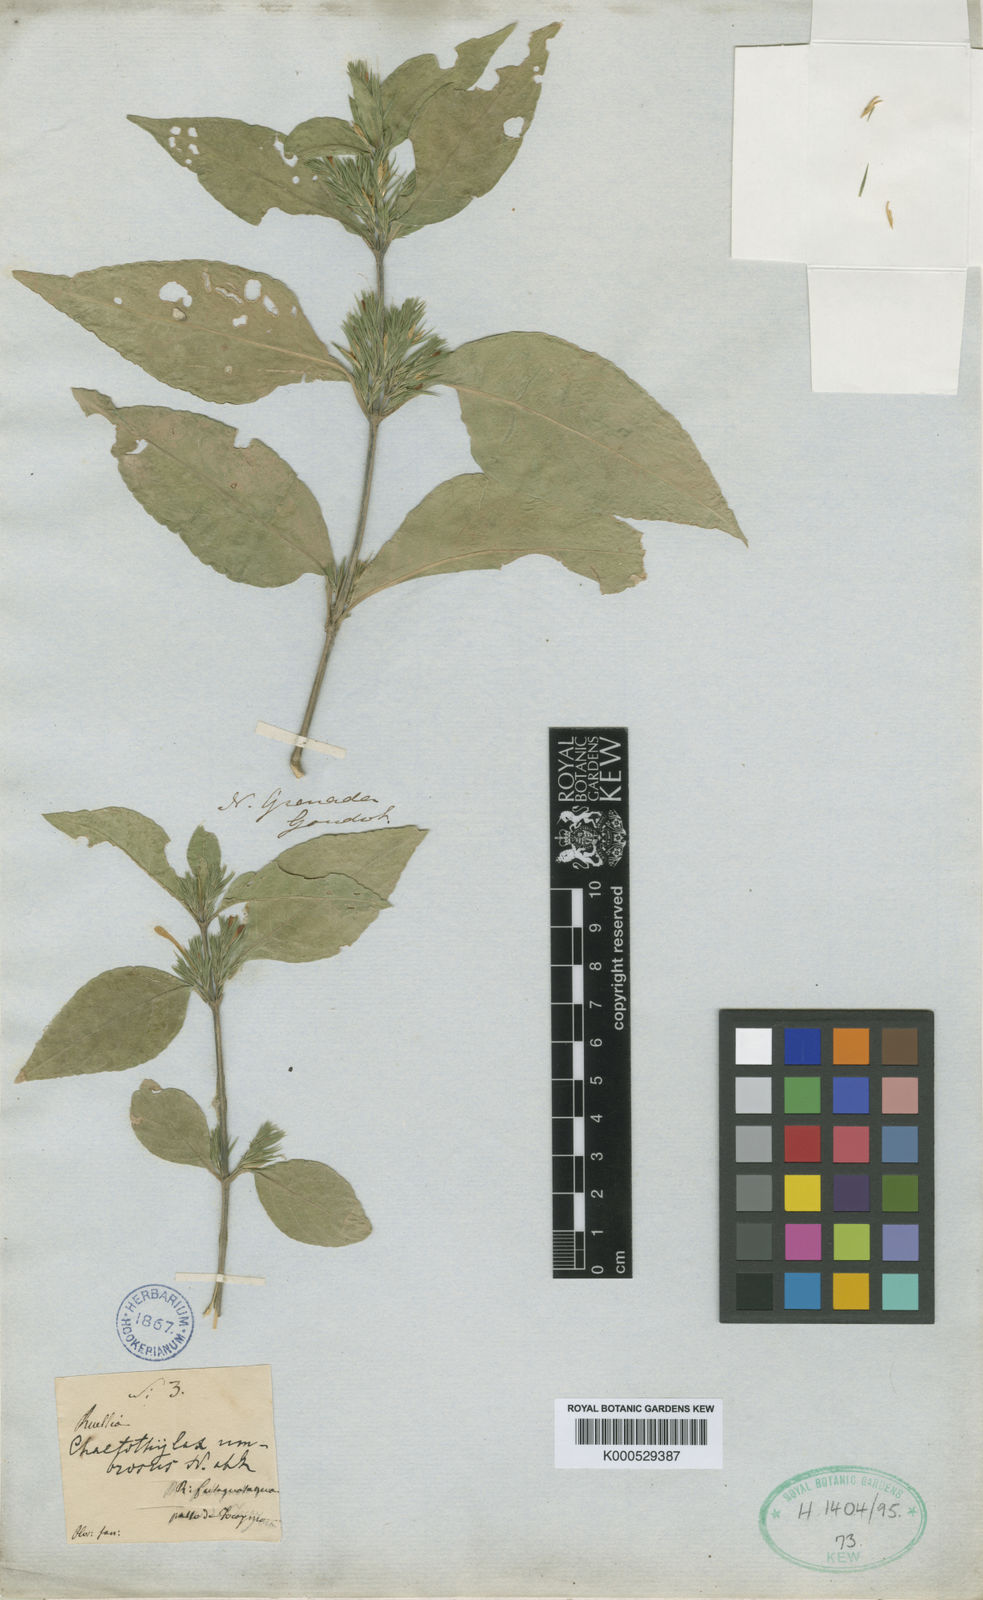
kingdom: Plantae
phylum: Tracheophyta
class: Magnoliopsida
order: Lamiales
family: Acanthaceae
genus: Poikilacanthus
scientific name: Poikilacanthus glandulosus
